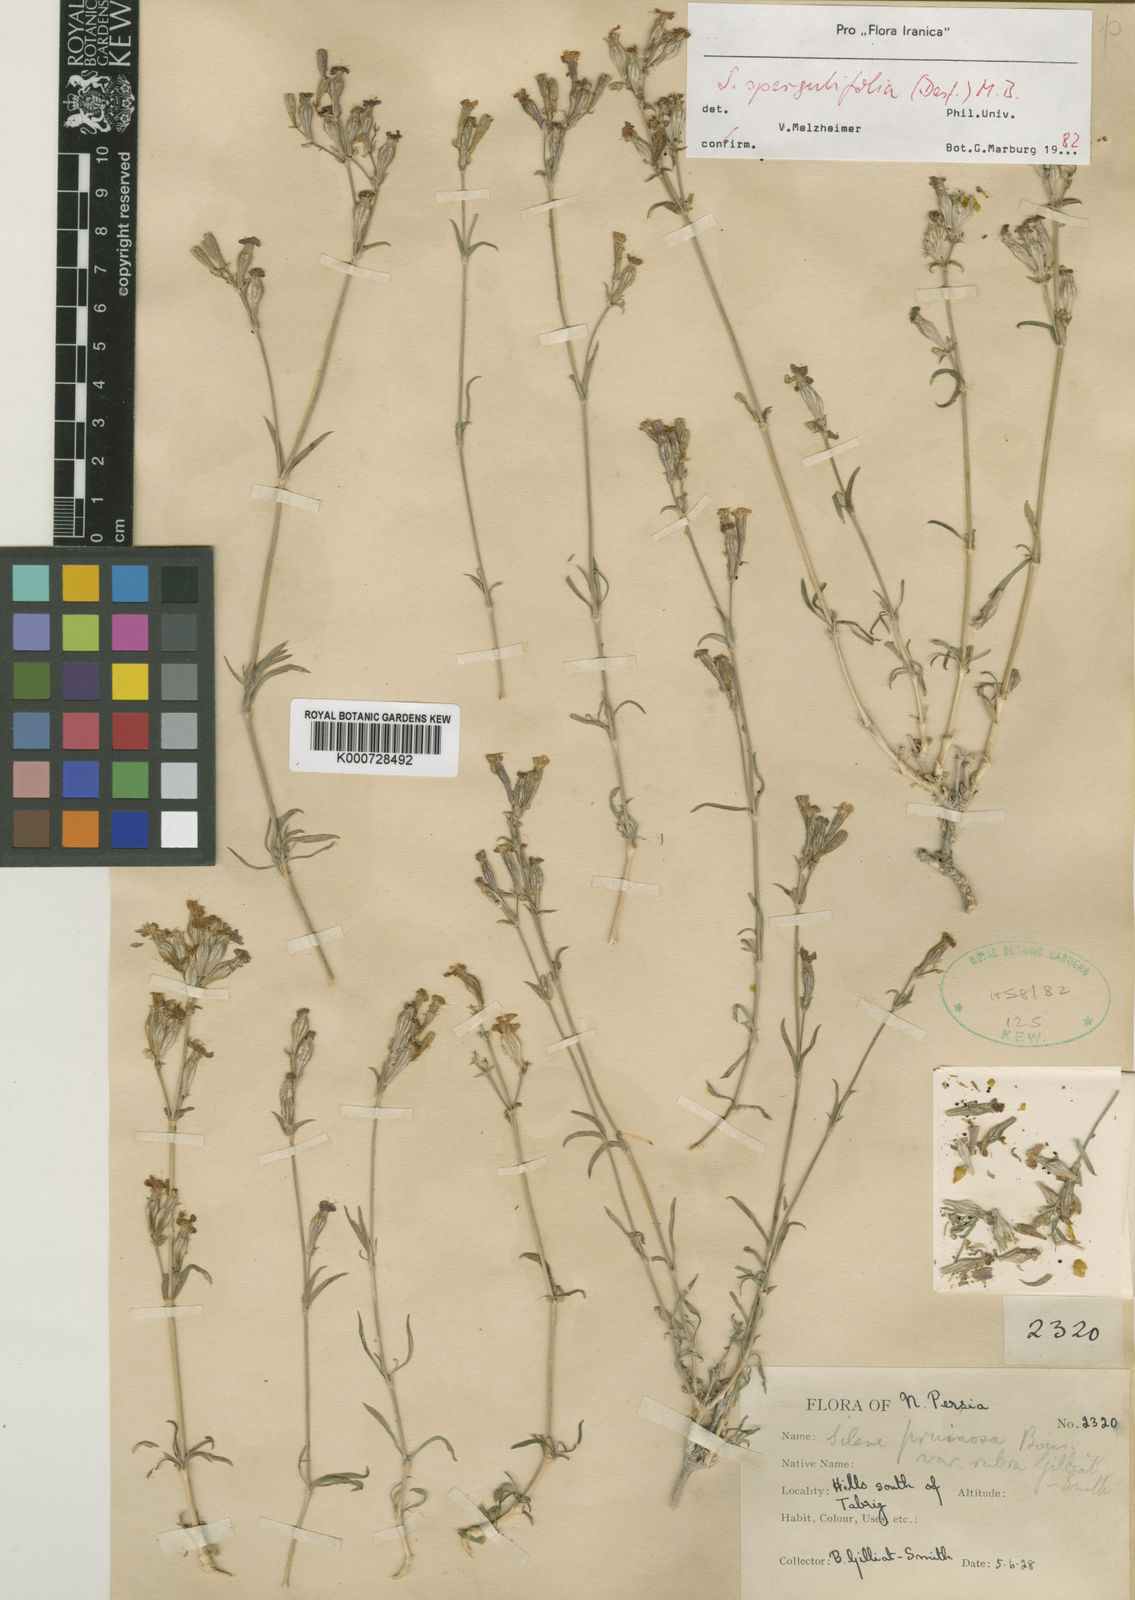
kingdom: Plantae
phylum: Tracheophyta
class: Magnoliopsida
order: Caryophyllales
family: Caryophyllaceae
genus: Silene
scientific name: Silene argentea
